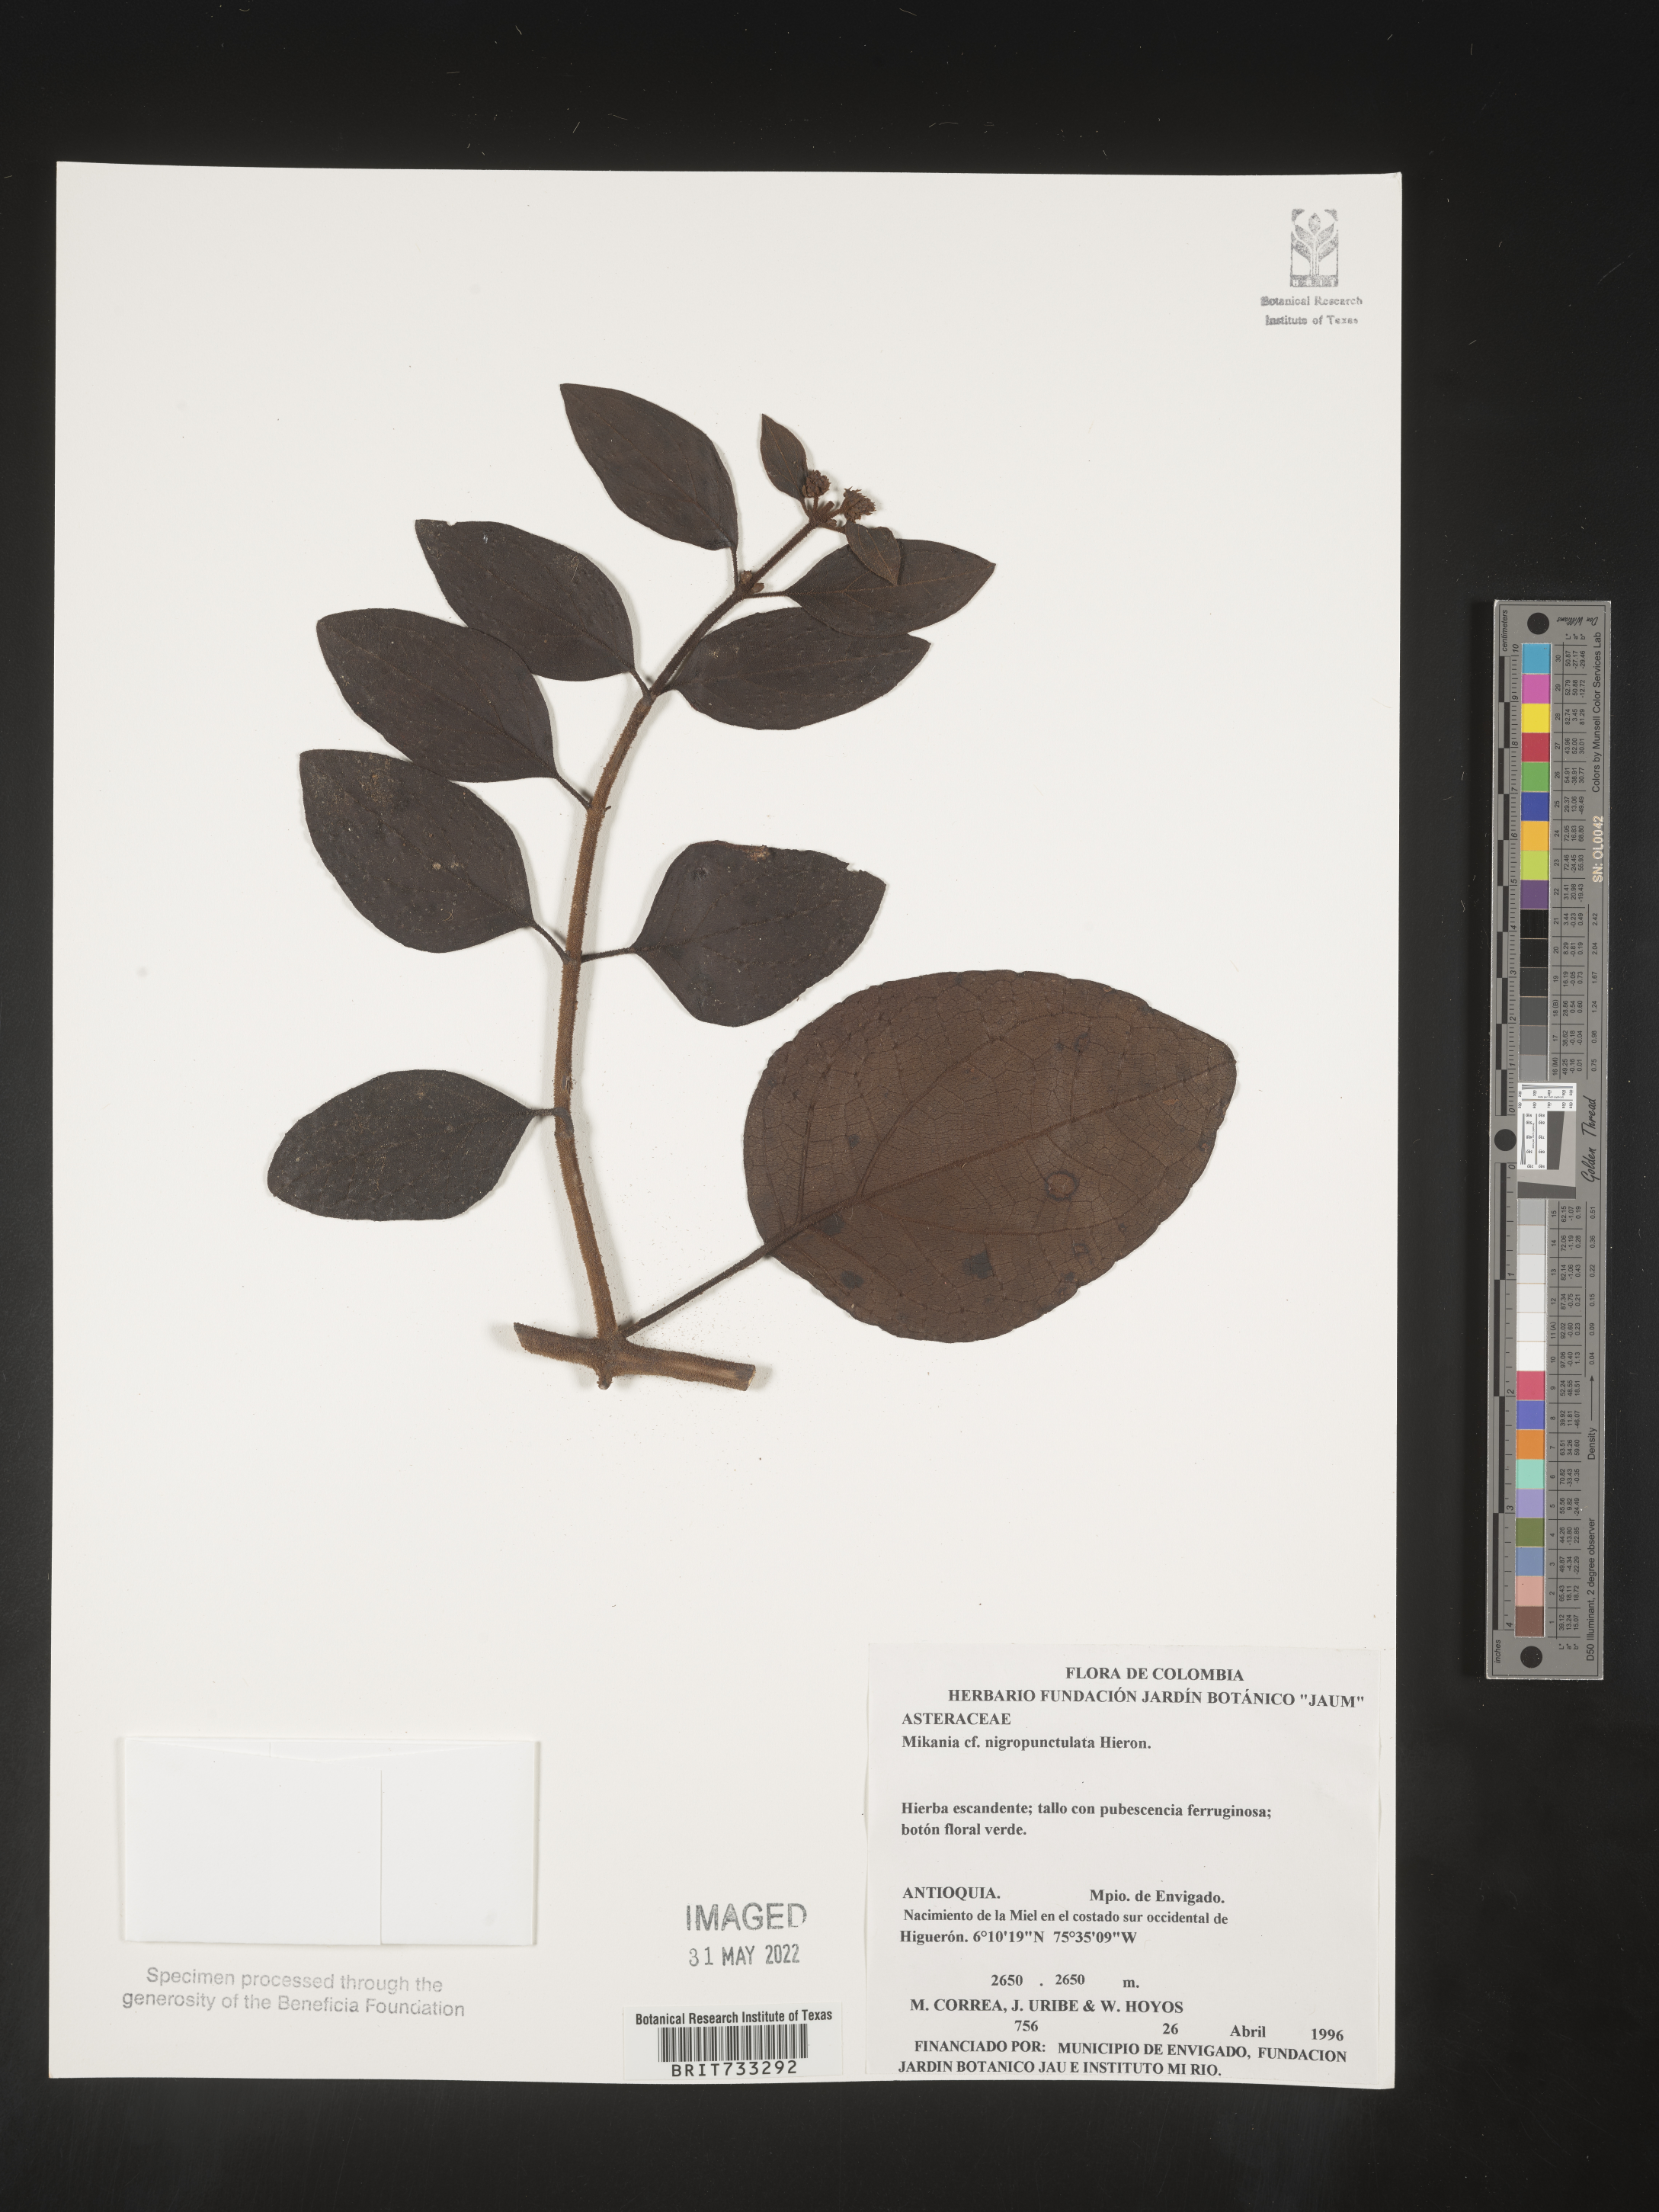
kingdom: Plantae
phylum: Tracheophyta
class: Magnoliopsida
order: Asterales
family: Asteraceae
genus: Mikania
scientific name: Mikania
